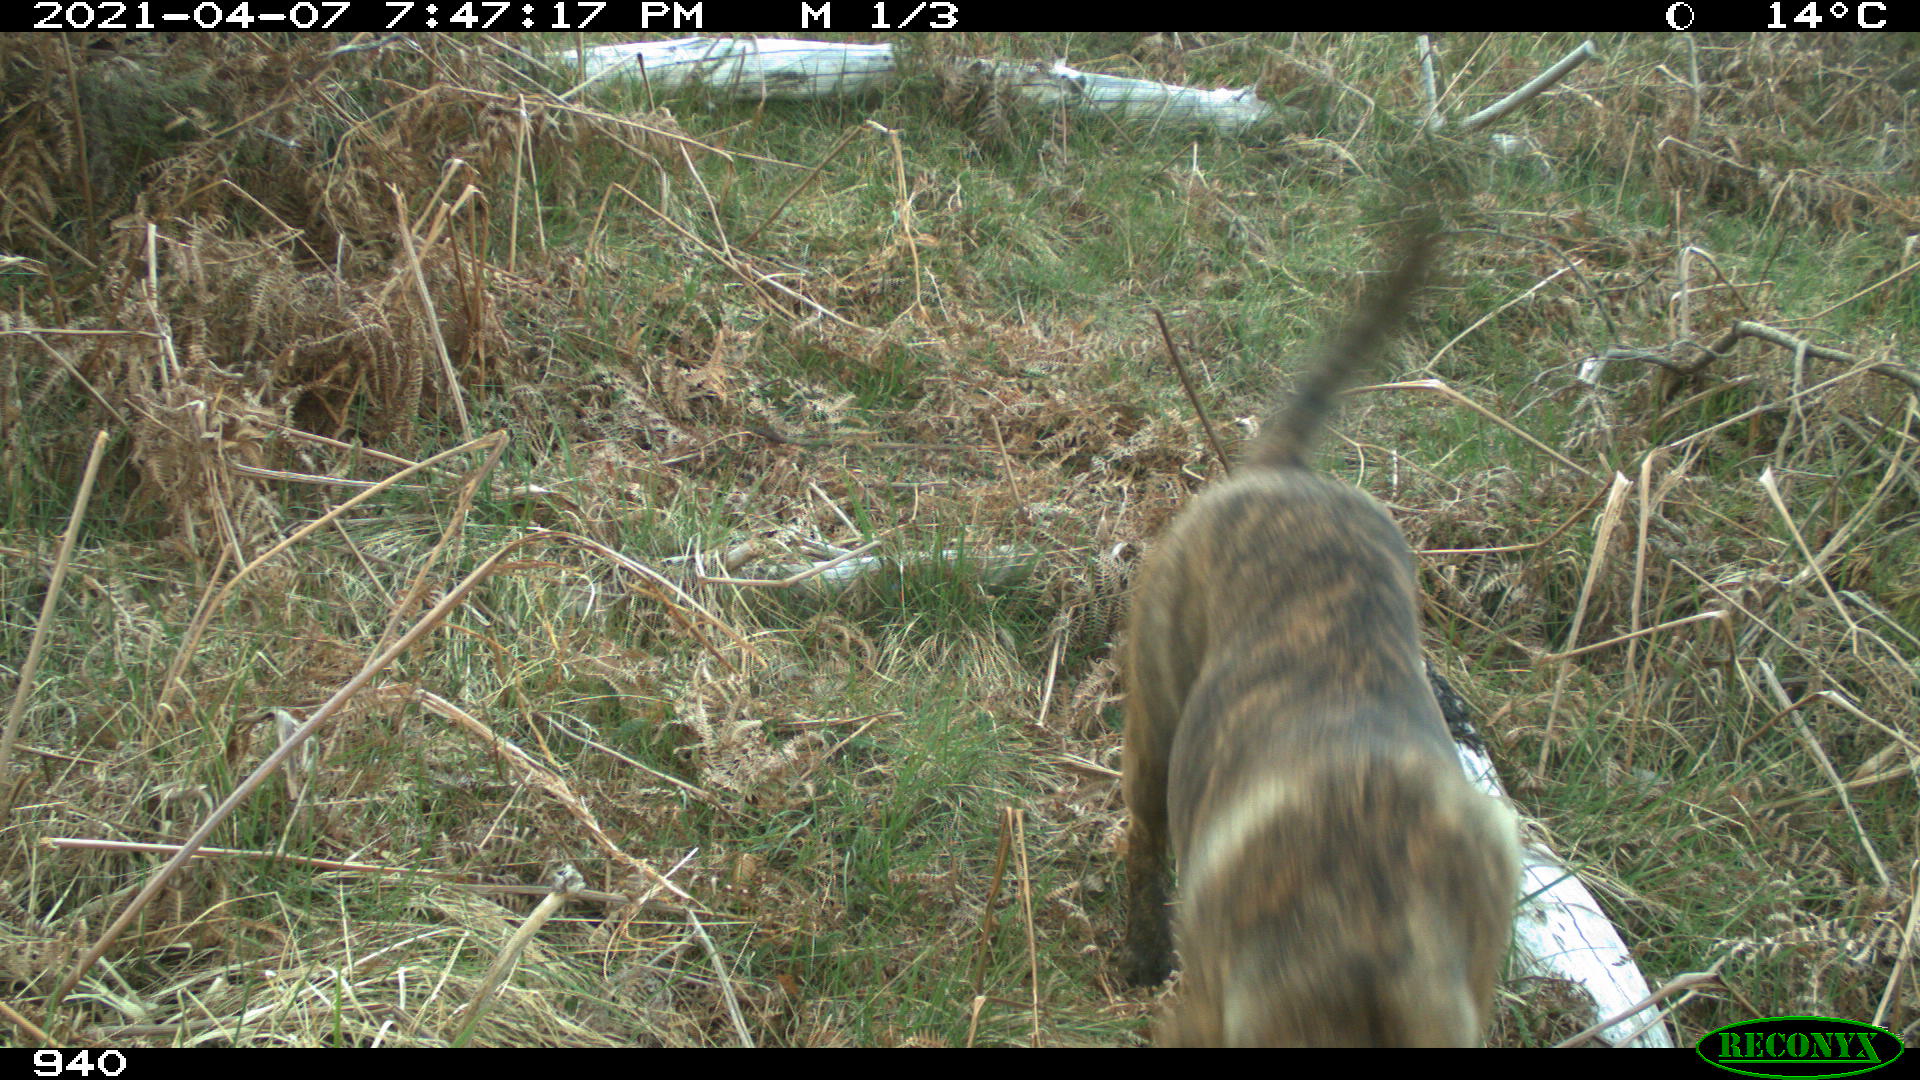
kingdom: Animalia
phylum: Chordata
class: Mammalia
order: Carnivora
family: Canidae
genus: Canis
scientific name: Canis lupus
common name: Gray wolf
